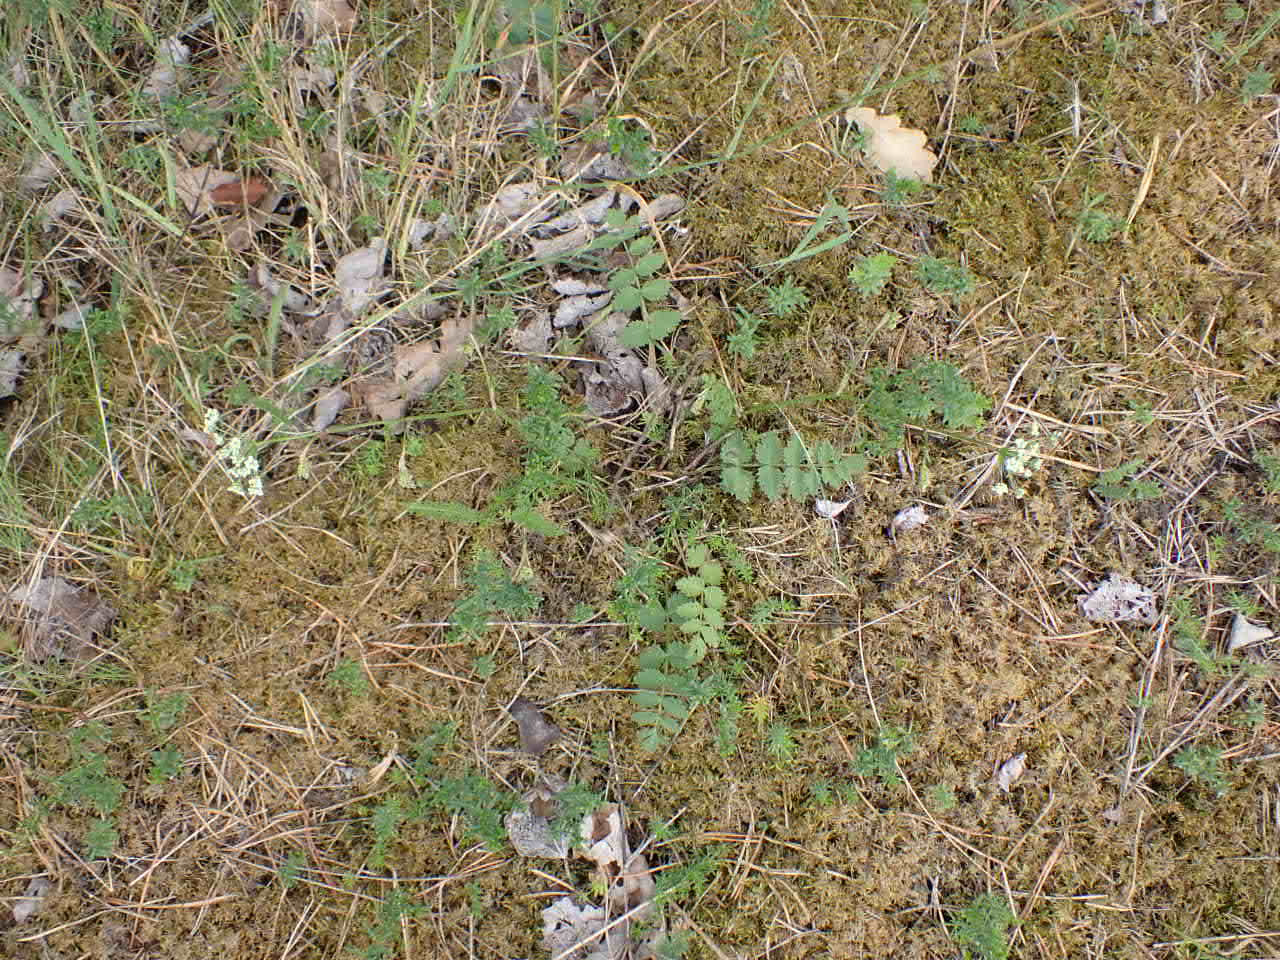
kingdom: Plantae
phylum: Tracheophyta
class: Magnoliopsida
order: Apiales
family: Apiaceae
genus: Pimpinella
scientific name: Pimpinella saxifraga
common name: Almindelig pimpinelle
